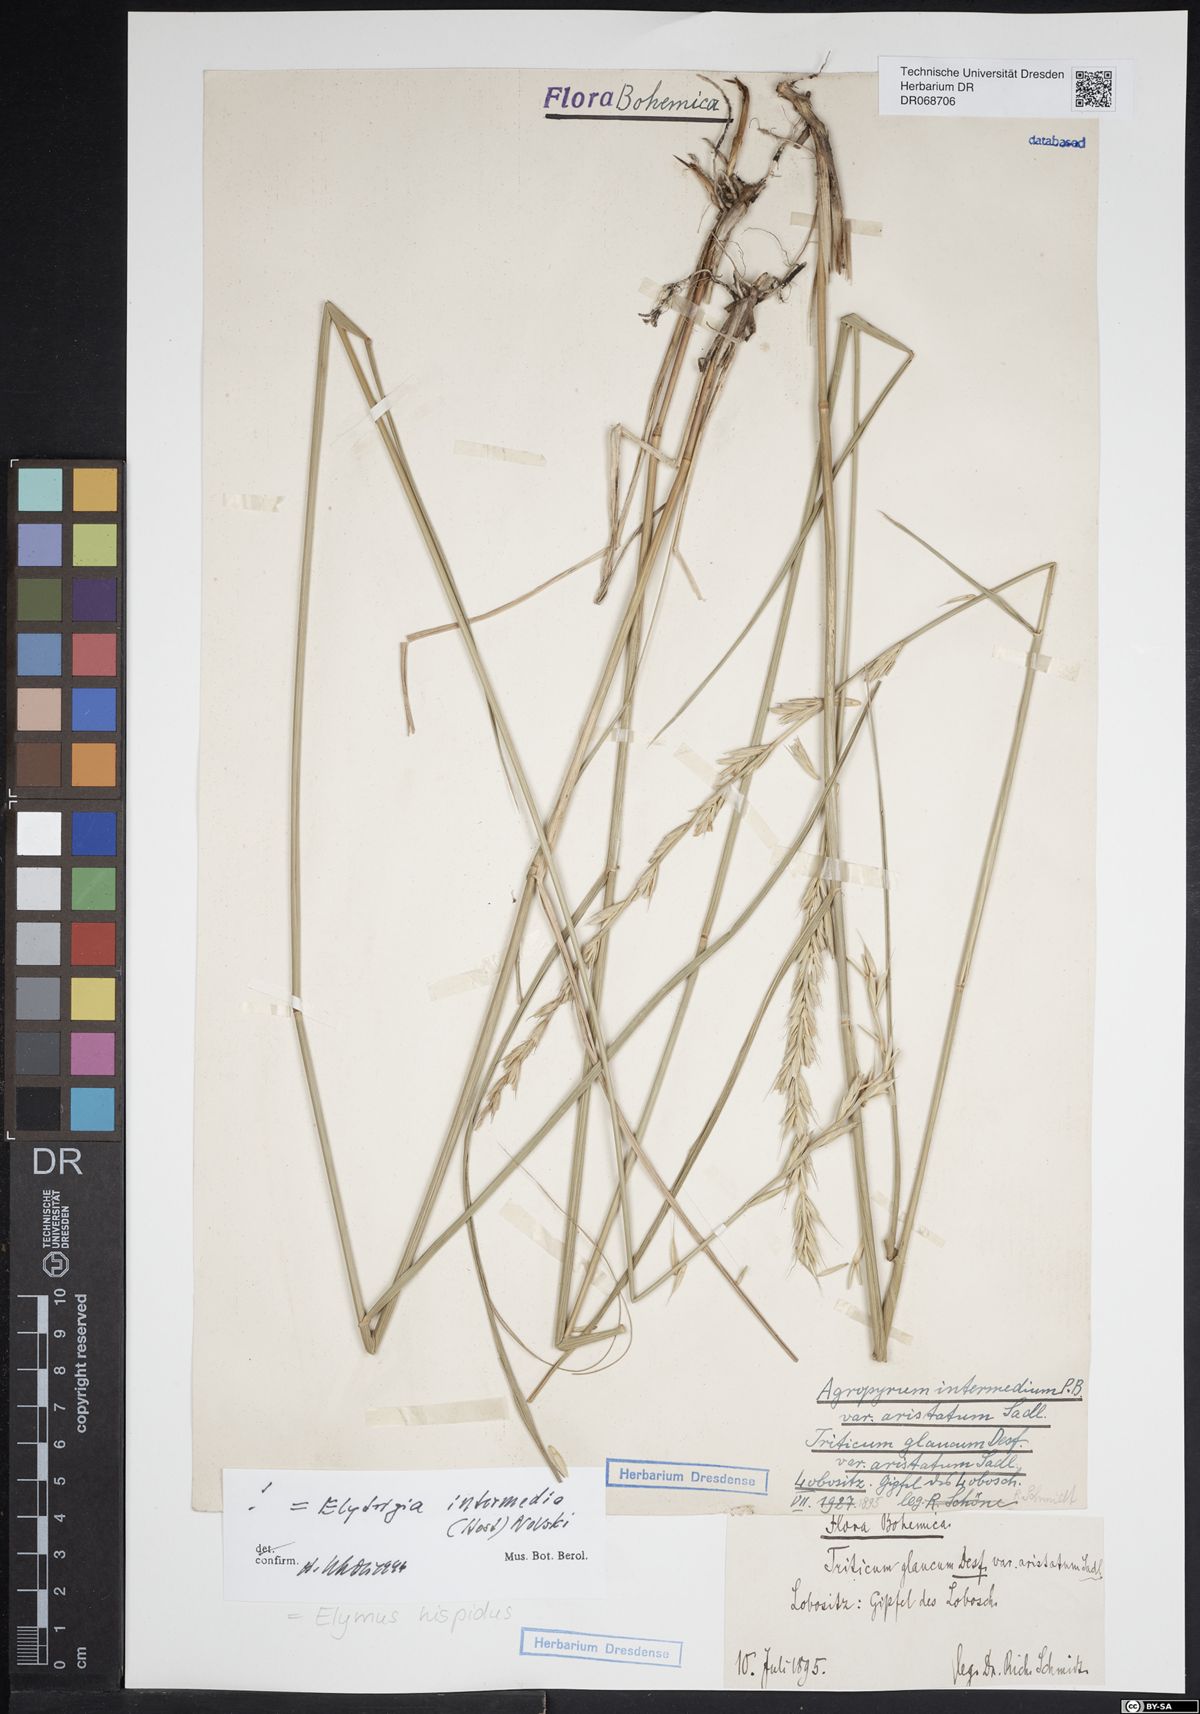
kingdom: Plantae
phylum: Tracheophyta
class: Liliopsida
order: Poales
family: Poaceae
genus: Thinopyrum
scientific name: Thinopyrum intermedium
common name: Intermediate wheatgrass
